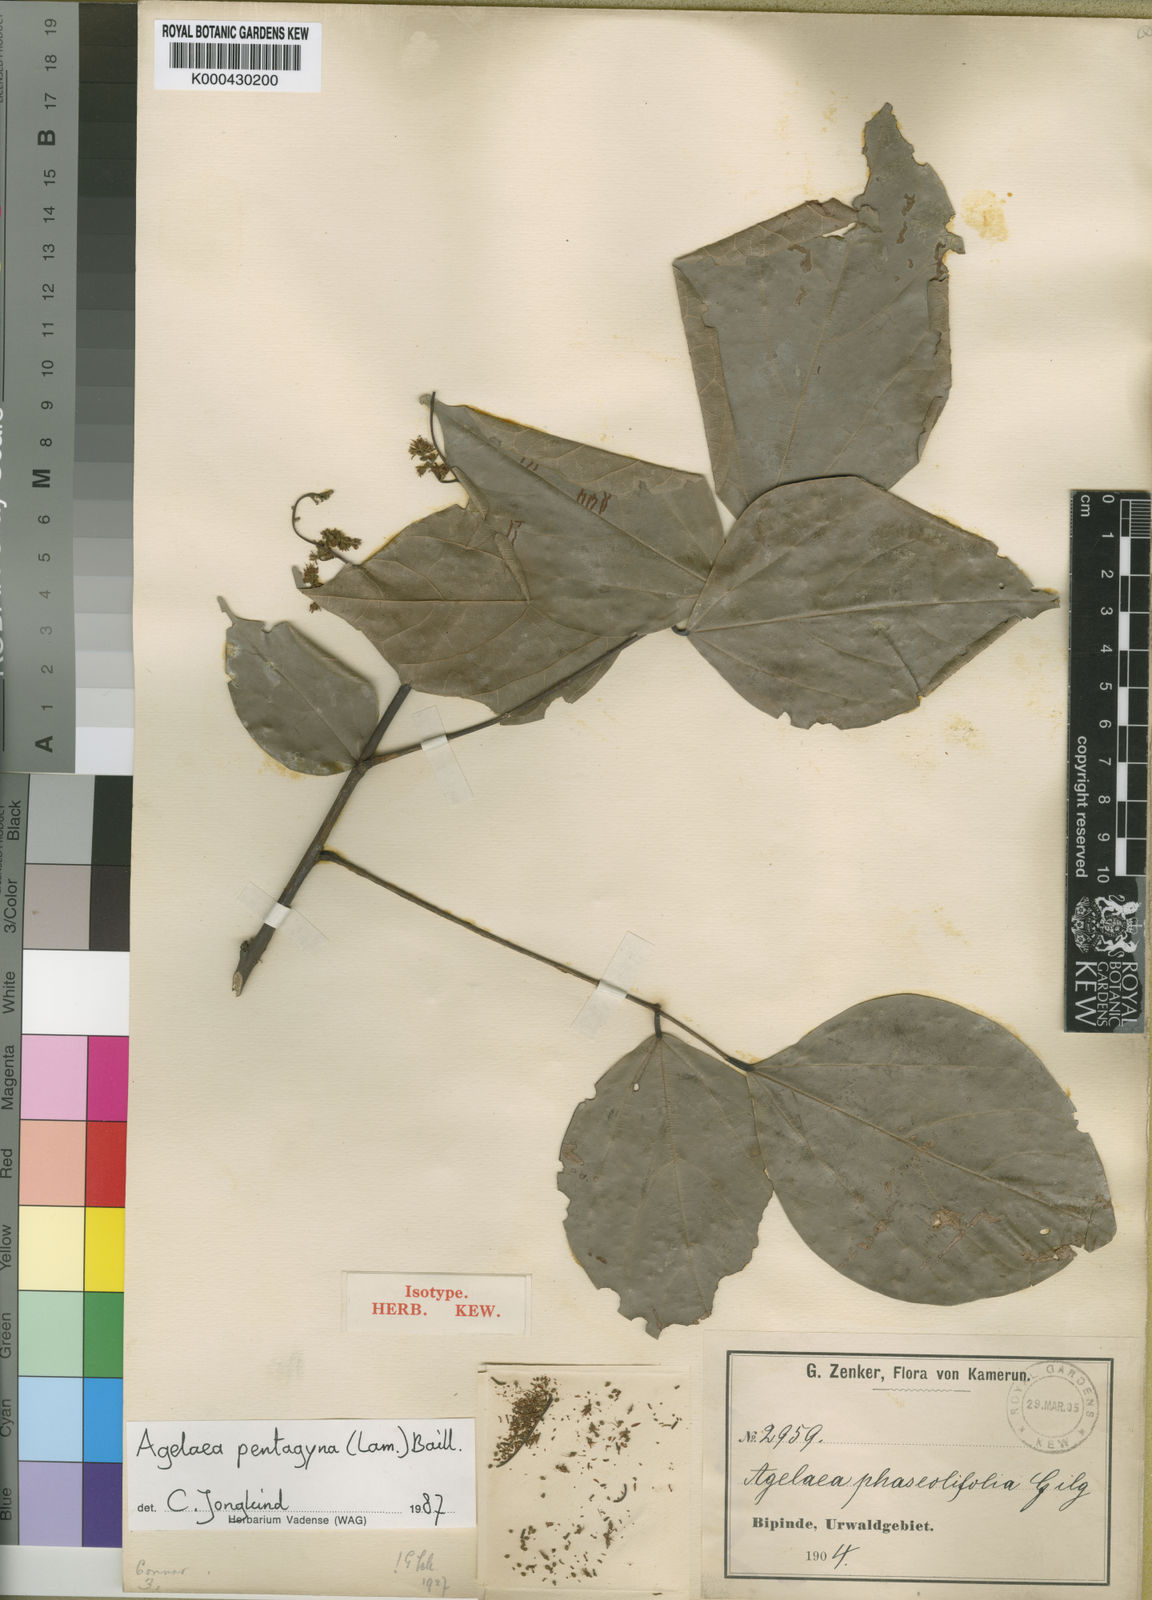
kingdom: Plantae
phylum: Tracheophyta
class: Magnoliopsida
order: Oxalidales
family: Connaraceae
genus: Agelaea
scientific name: Agelaea pentagyna
